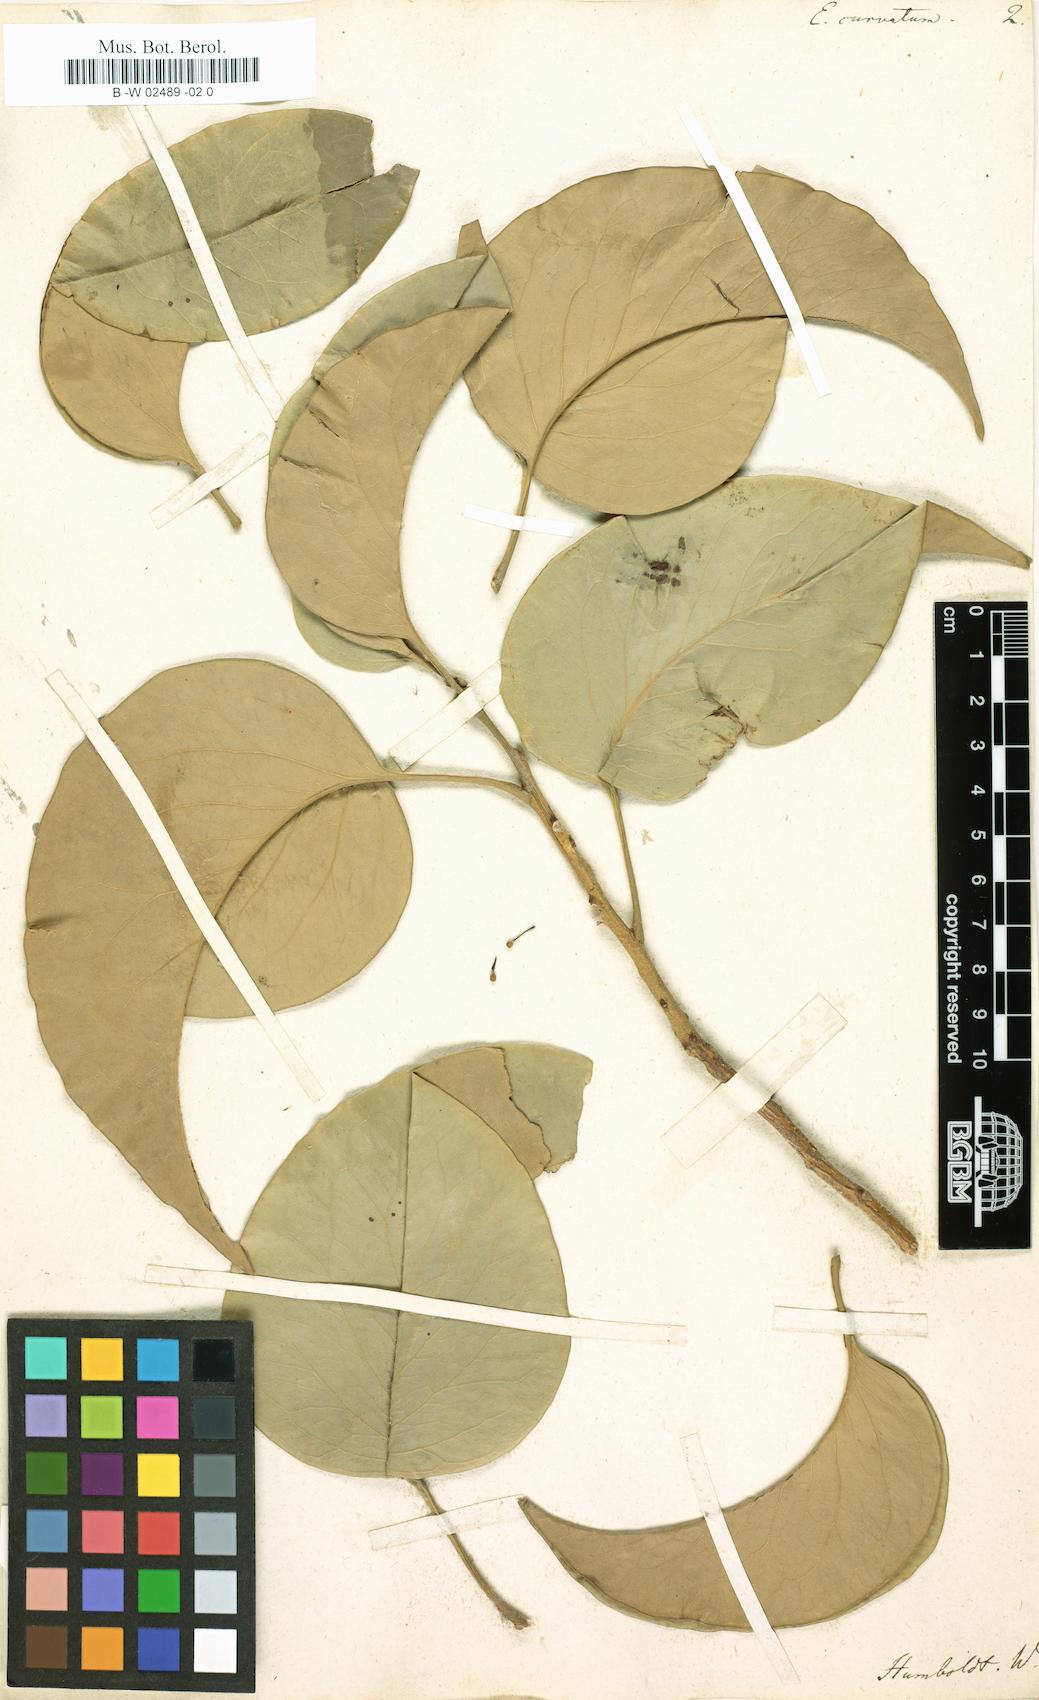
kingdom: Plantae
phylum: Tracheophyta
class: Magnoliopsida
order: Proteales
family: Proteaceae
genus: Roupala
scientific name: Roupala montana
